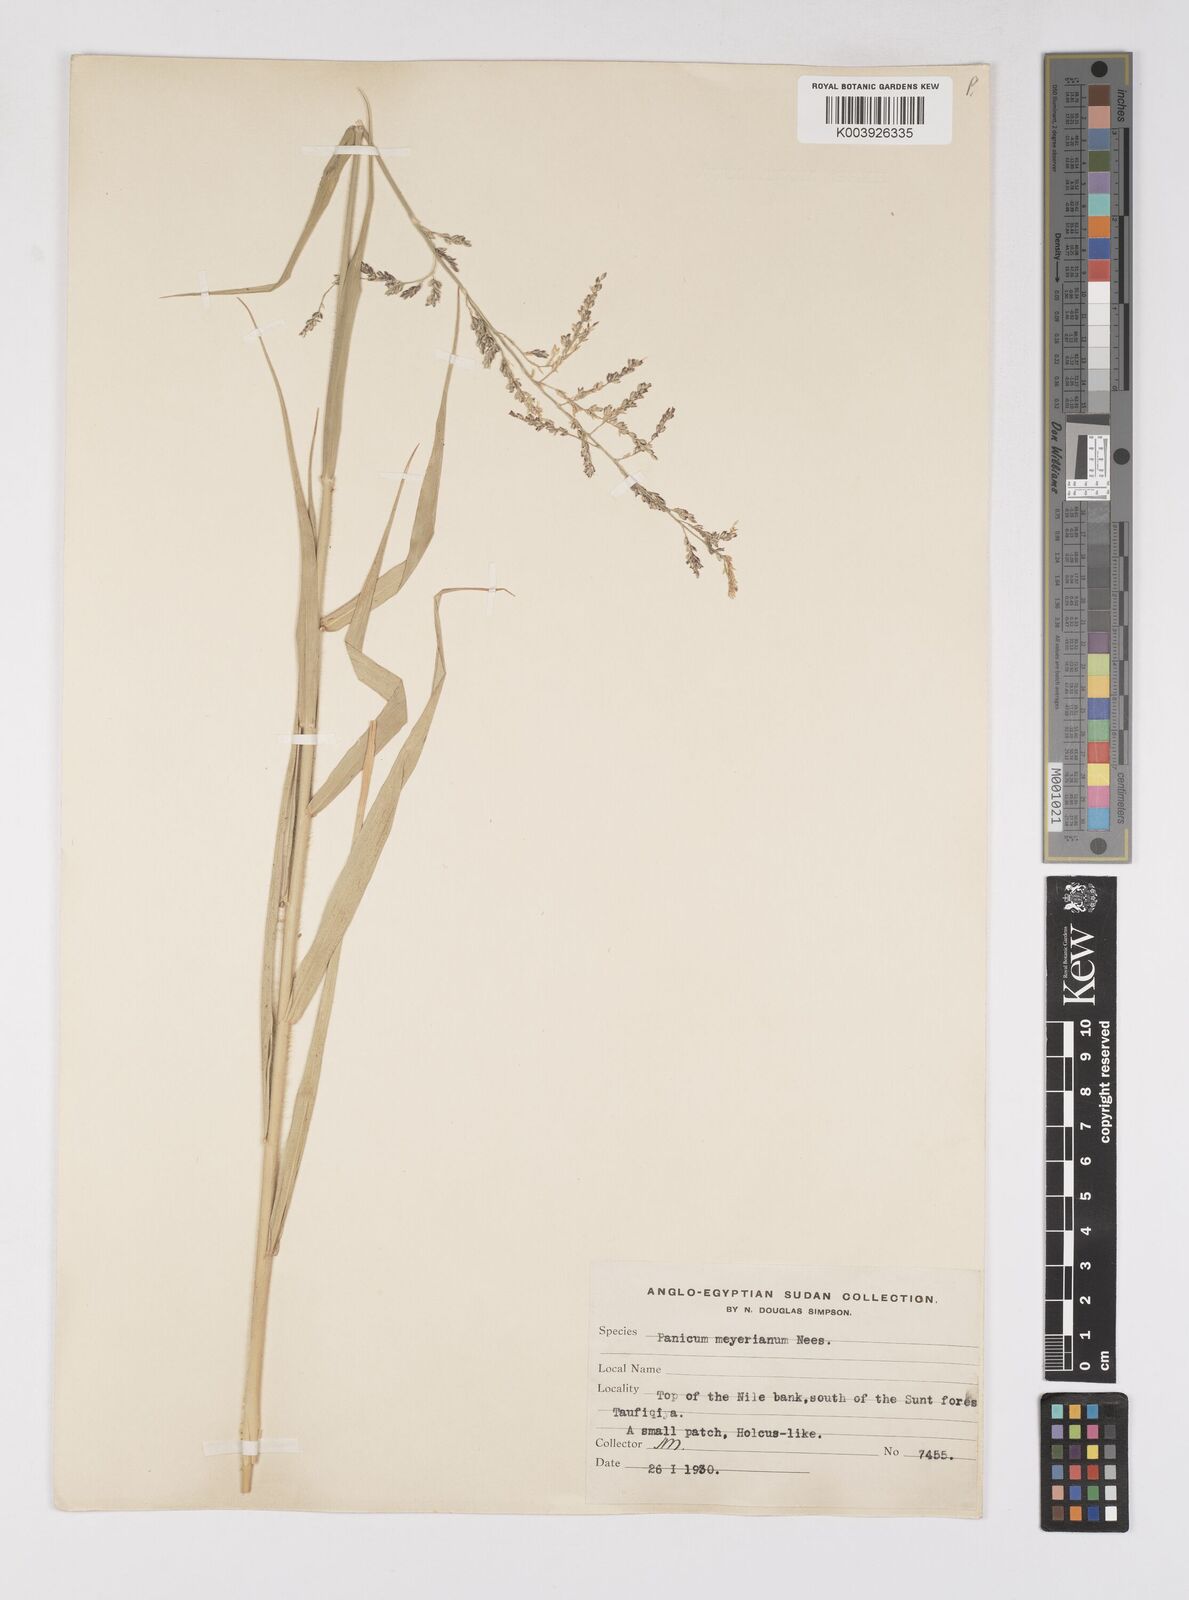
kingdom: Plantae
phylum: Tracheophyta
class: Liliopsida
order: Poales
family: Poaceae
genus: Eriochloa
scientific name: Eriochloa meyeriana
